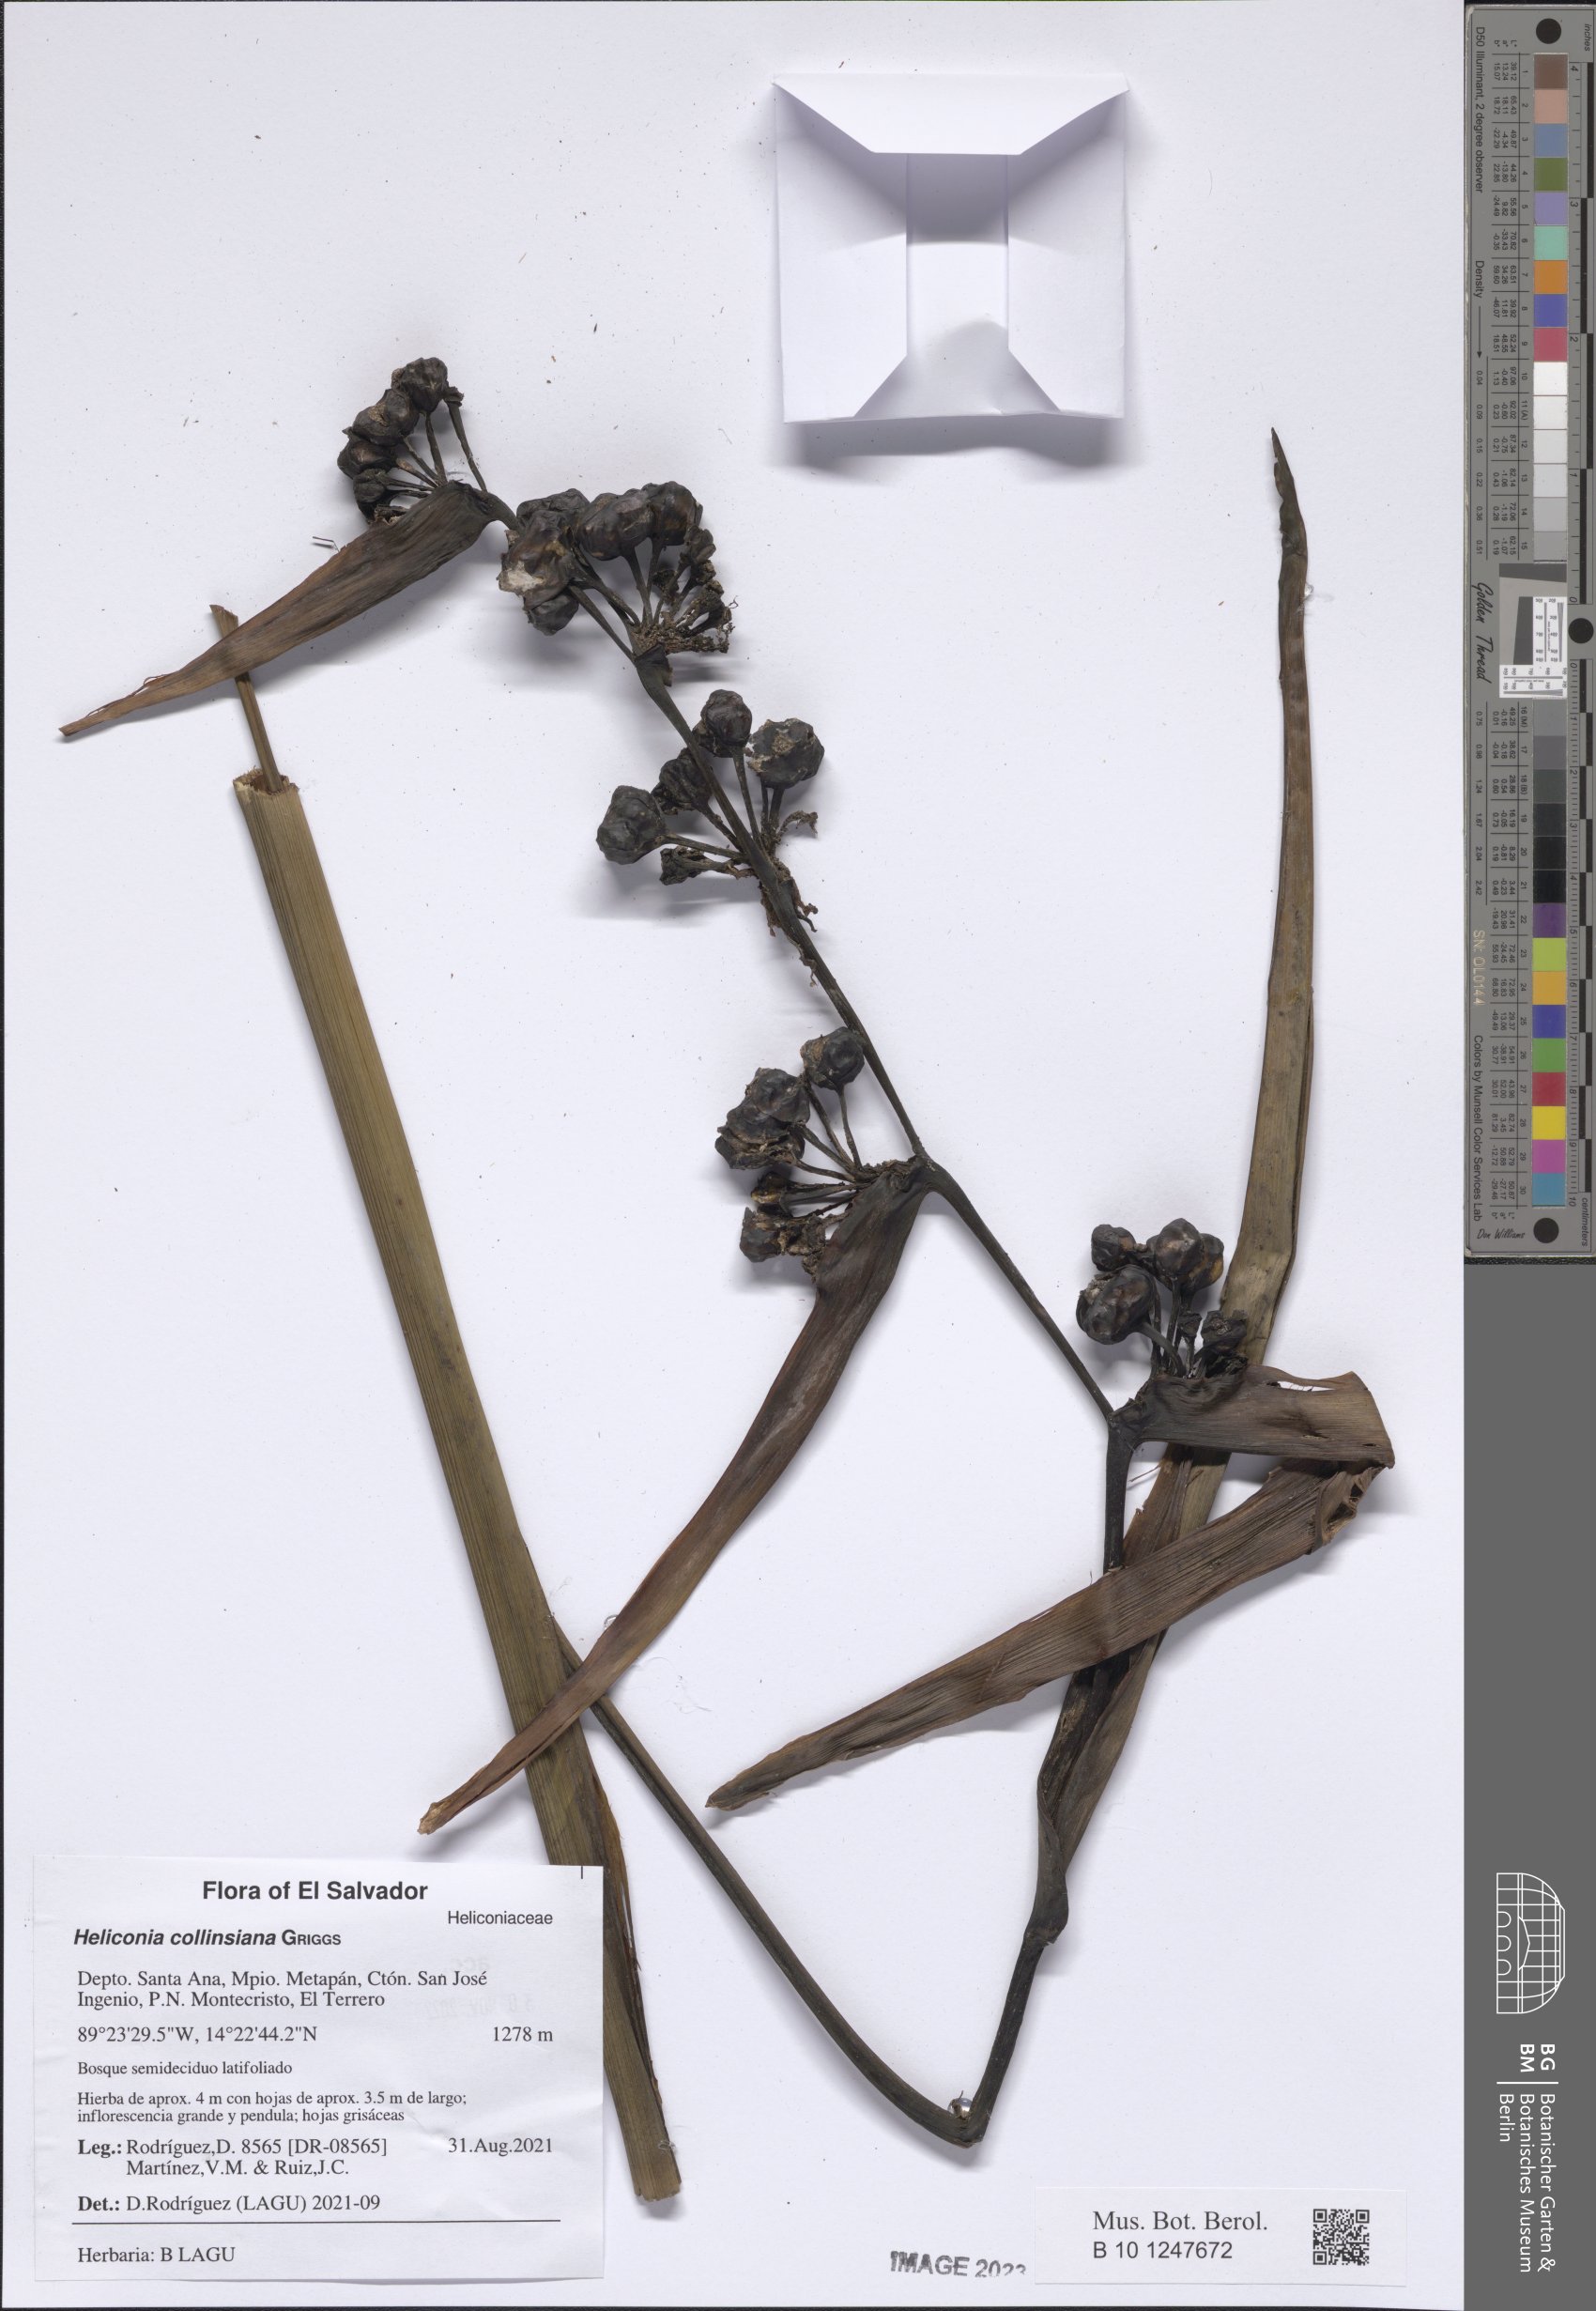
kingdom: Plantae
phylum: Tracheophyta
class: Liliopsida
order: Zingiberales
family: Heliconiaceae
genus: Heliconia
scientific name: Heliconia collinsiana
